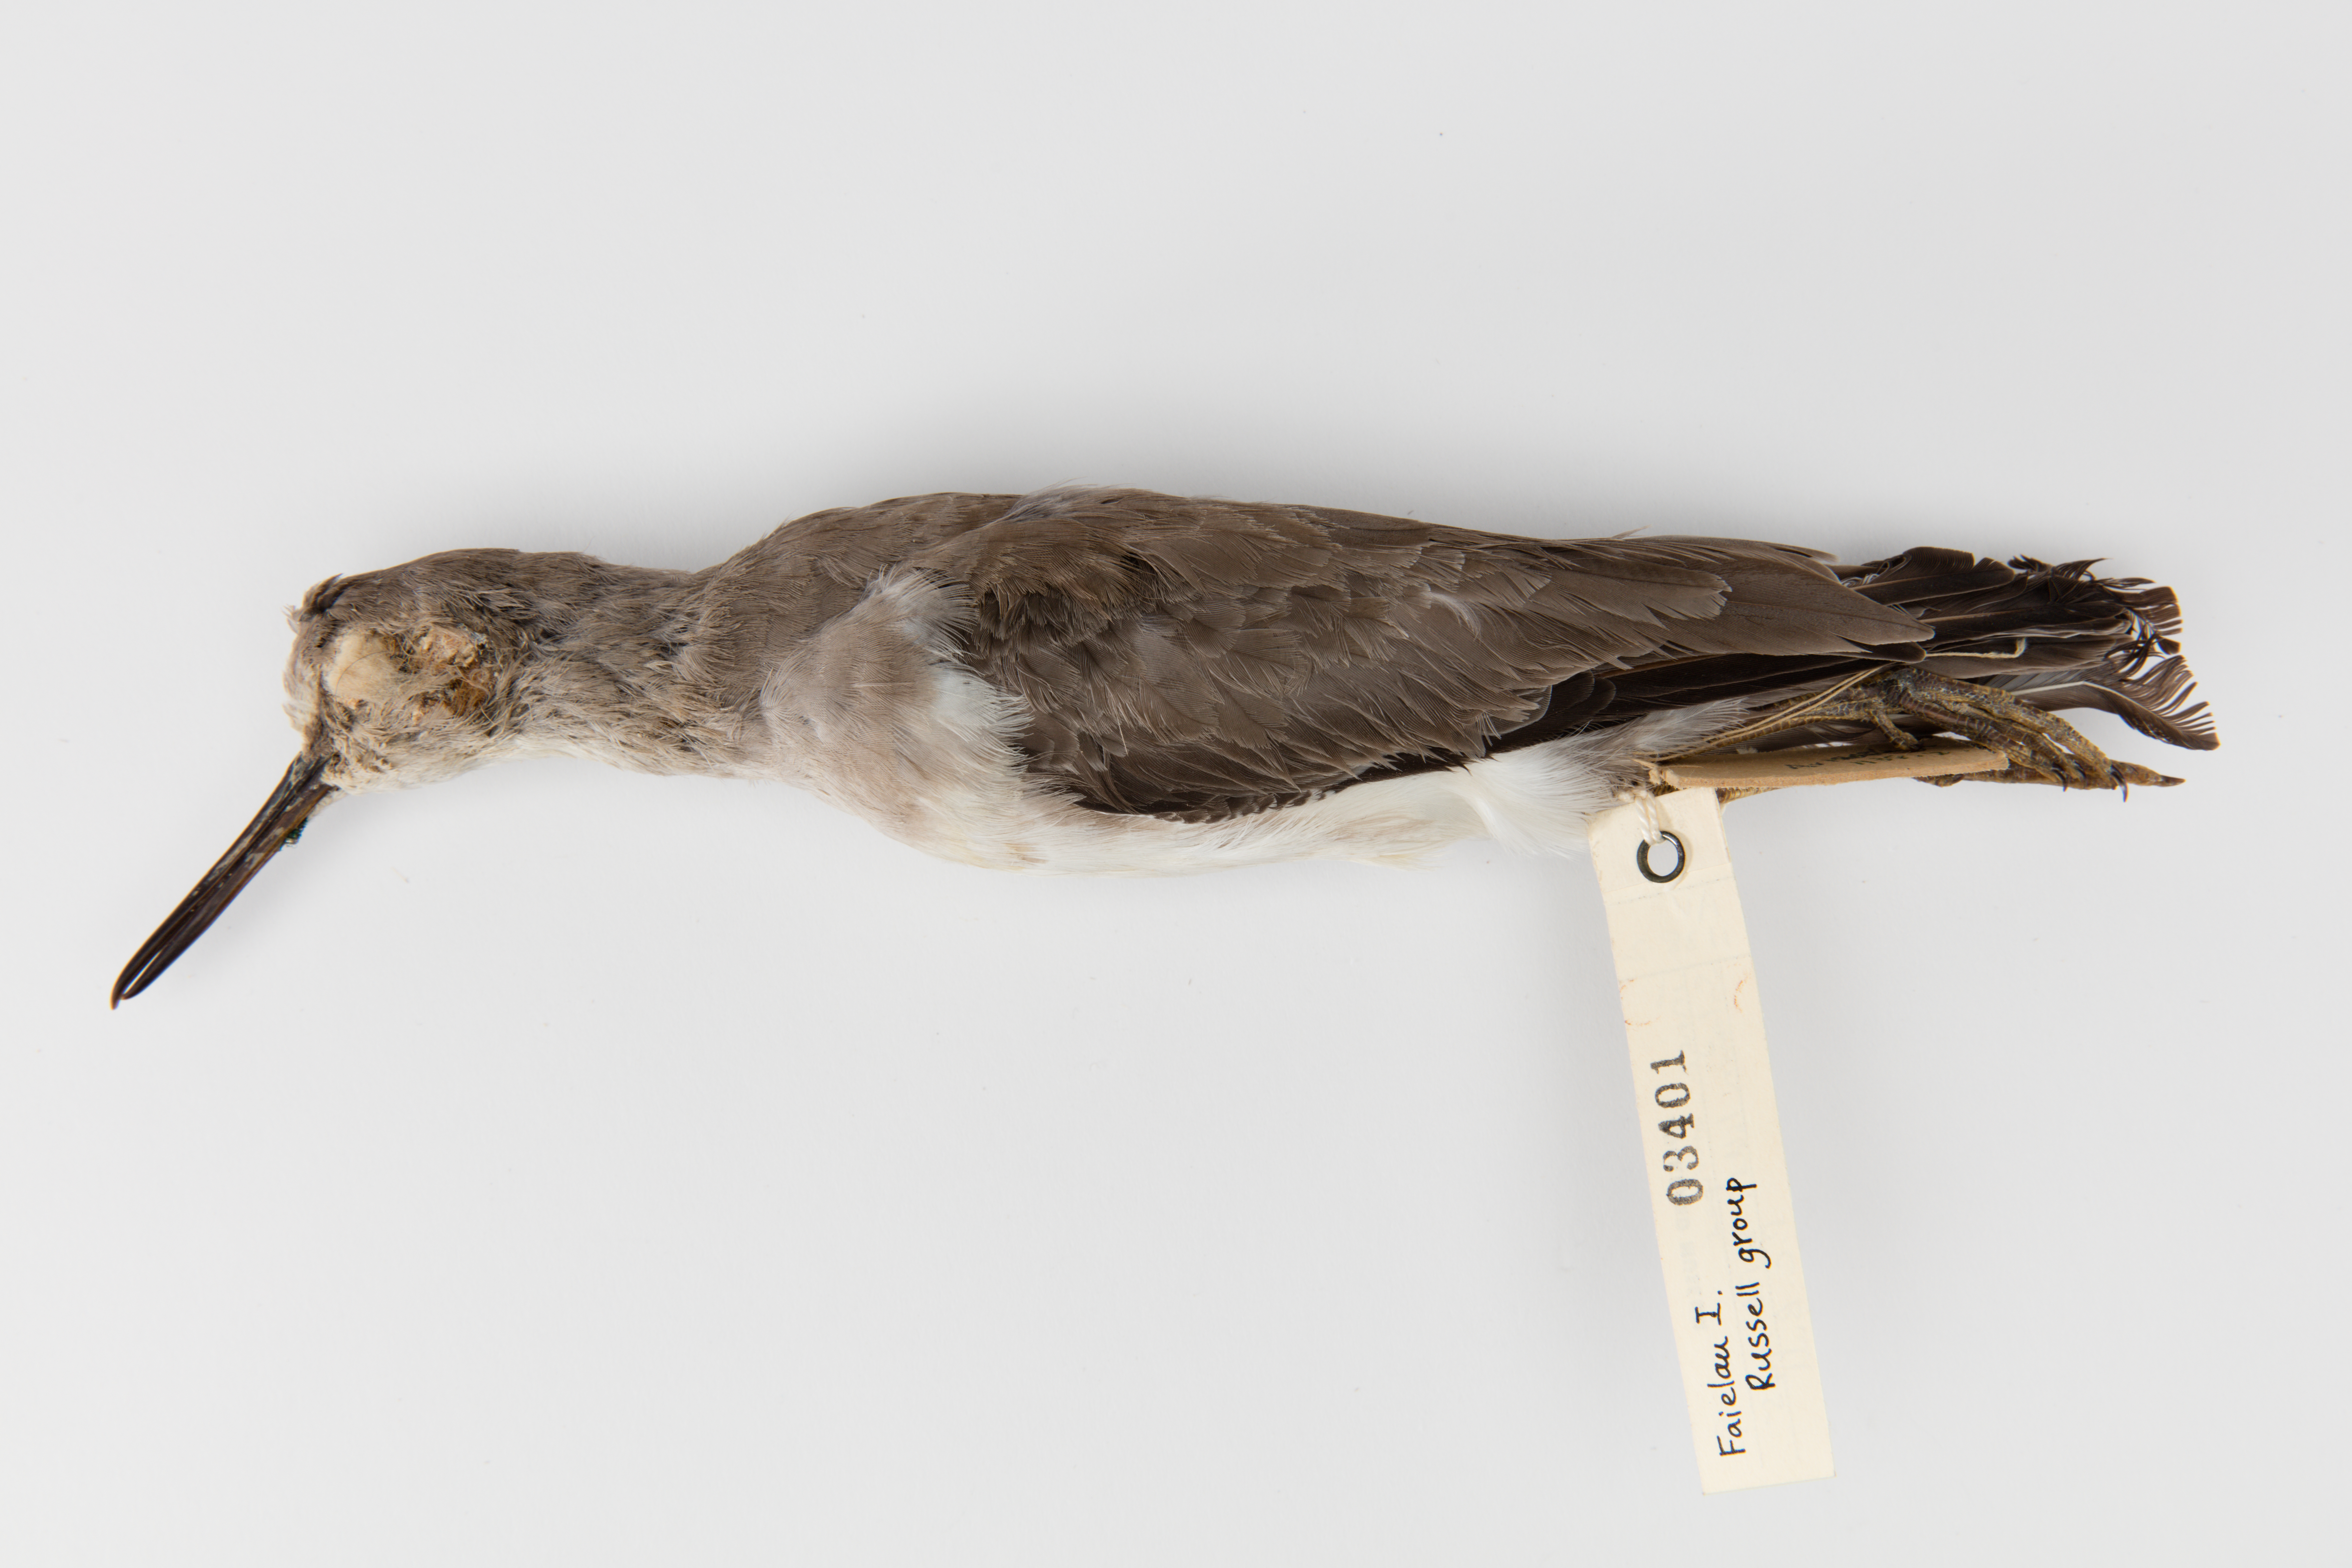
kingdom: Animalia
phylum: Chordata
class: Aves
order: Charadriiformes
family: Scolopacidae
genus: Tringa
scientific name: Tringa brevipes
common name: Grey-tailed tattler
